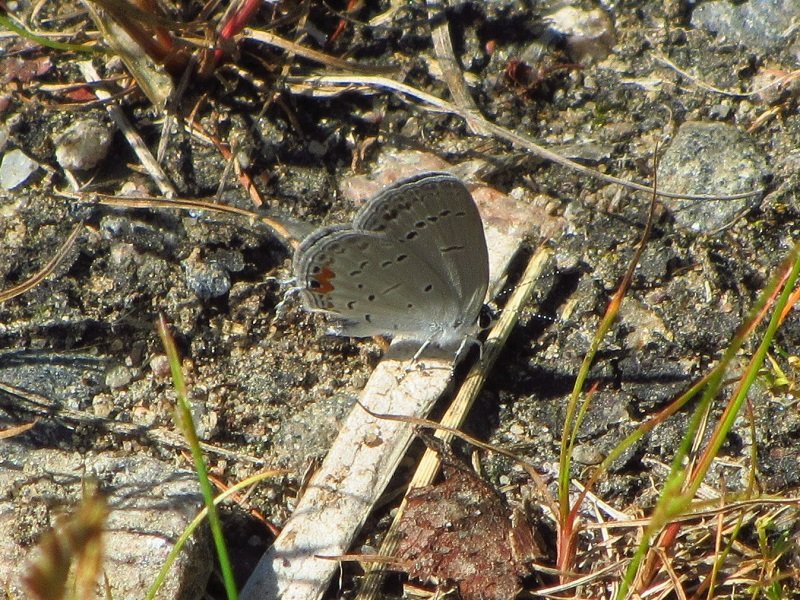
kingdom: Animalia
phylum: Arthropoda
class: Insecta
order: Lepidoptera
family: Lycaenidae
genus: Elkalyce
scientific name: Elkalyce comyntas
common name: Eastern Tailed-Blue
